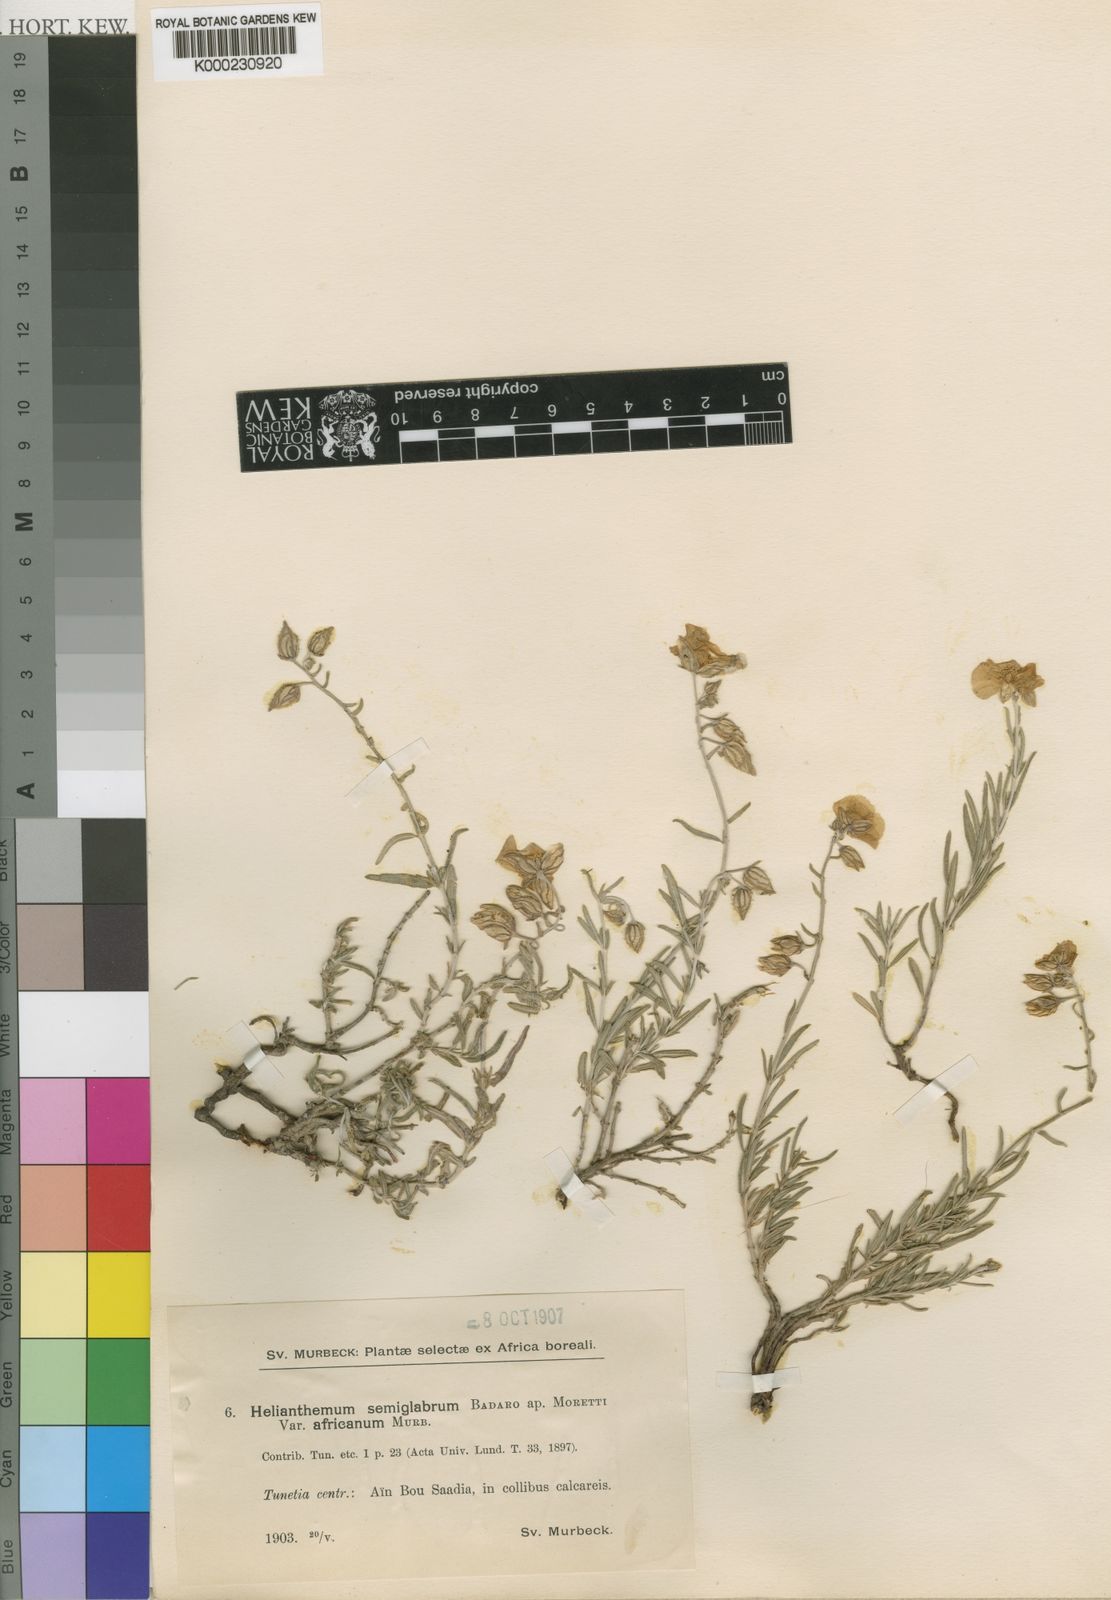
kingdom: Plantae
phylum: Tracheophyta
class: Magnoliopsida
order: Malvales
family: Cistaceae
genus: Helianthemum
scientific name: Helianthemum virgatum
